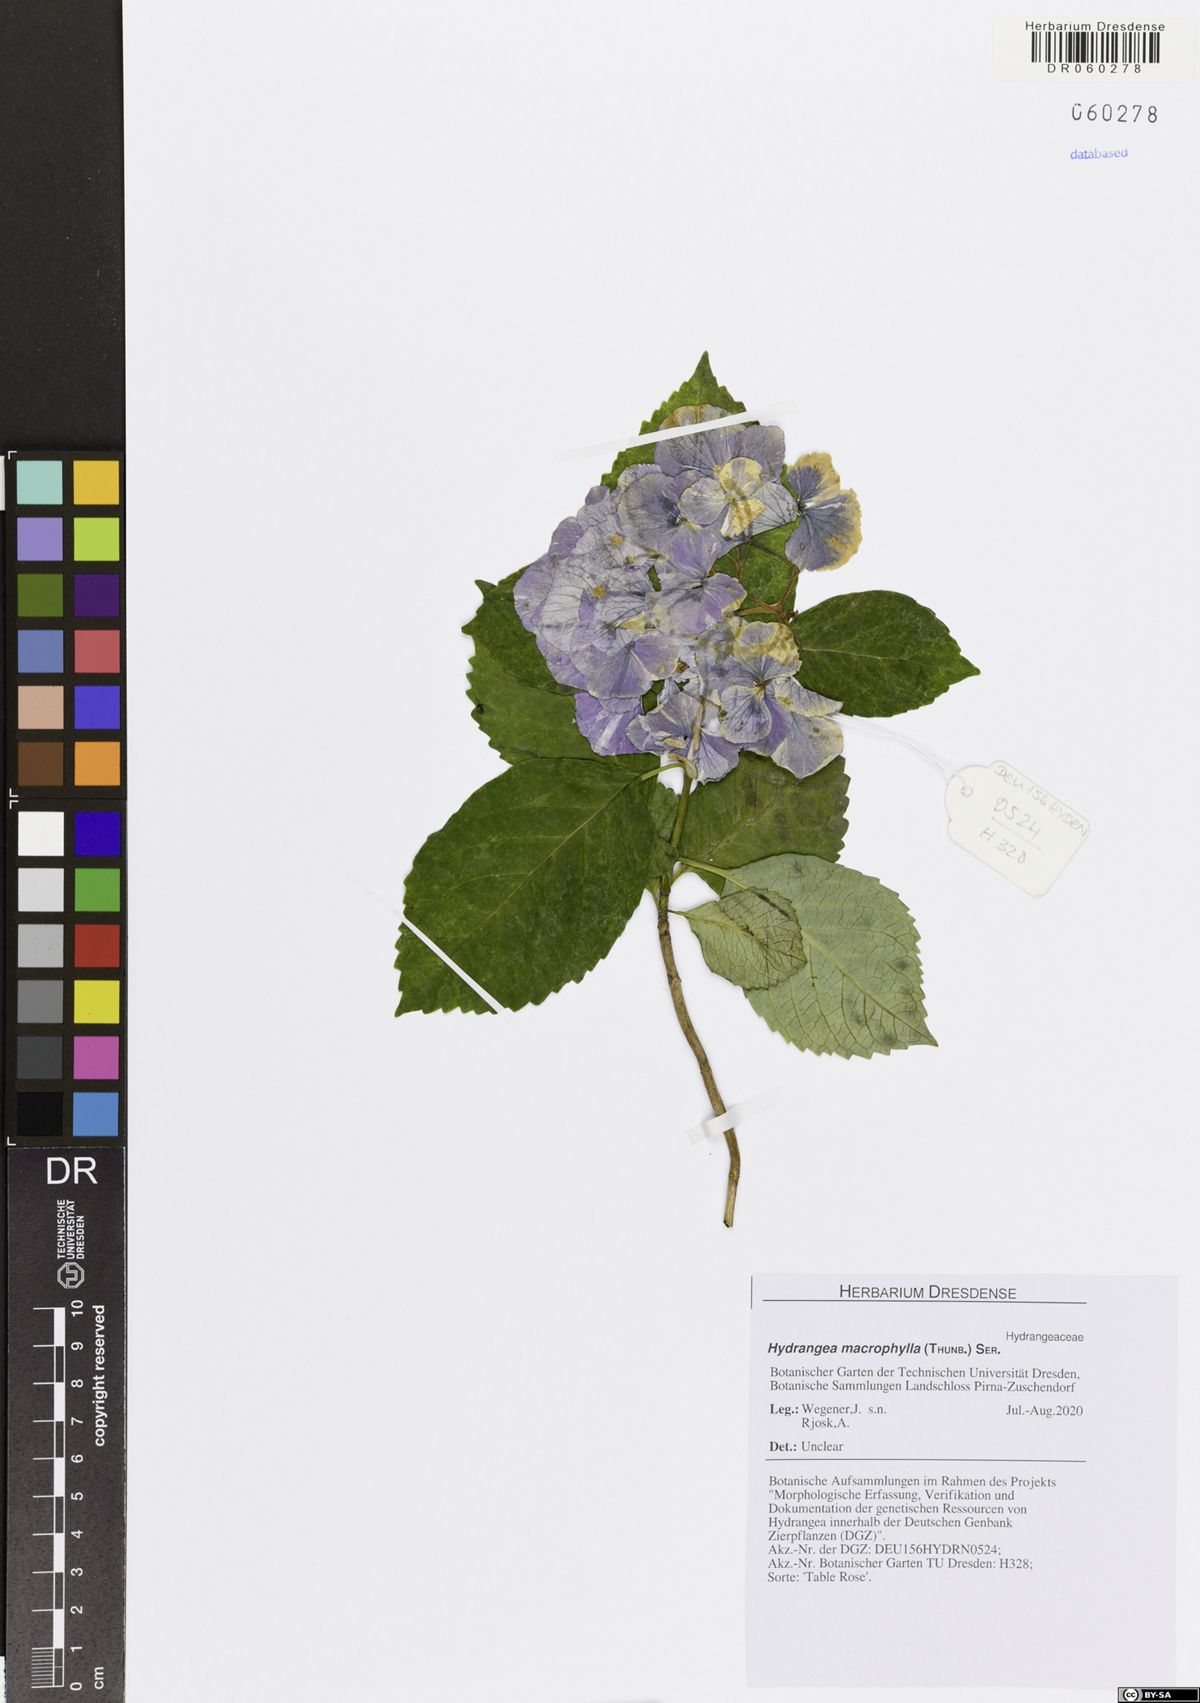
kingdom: Plantae
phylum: Tracheophyta
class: Magnoliopsida
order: Cornales
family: Hydrangeaceae
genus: Hydrangea
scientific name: Hydrangea macrophylla
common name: Hydrangea
